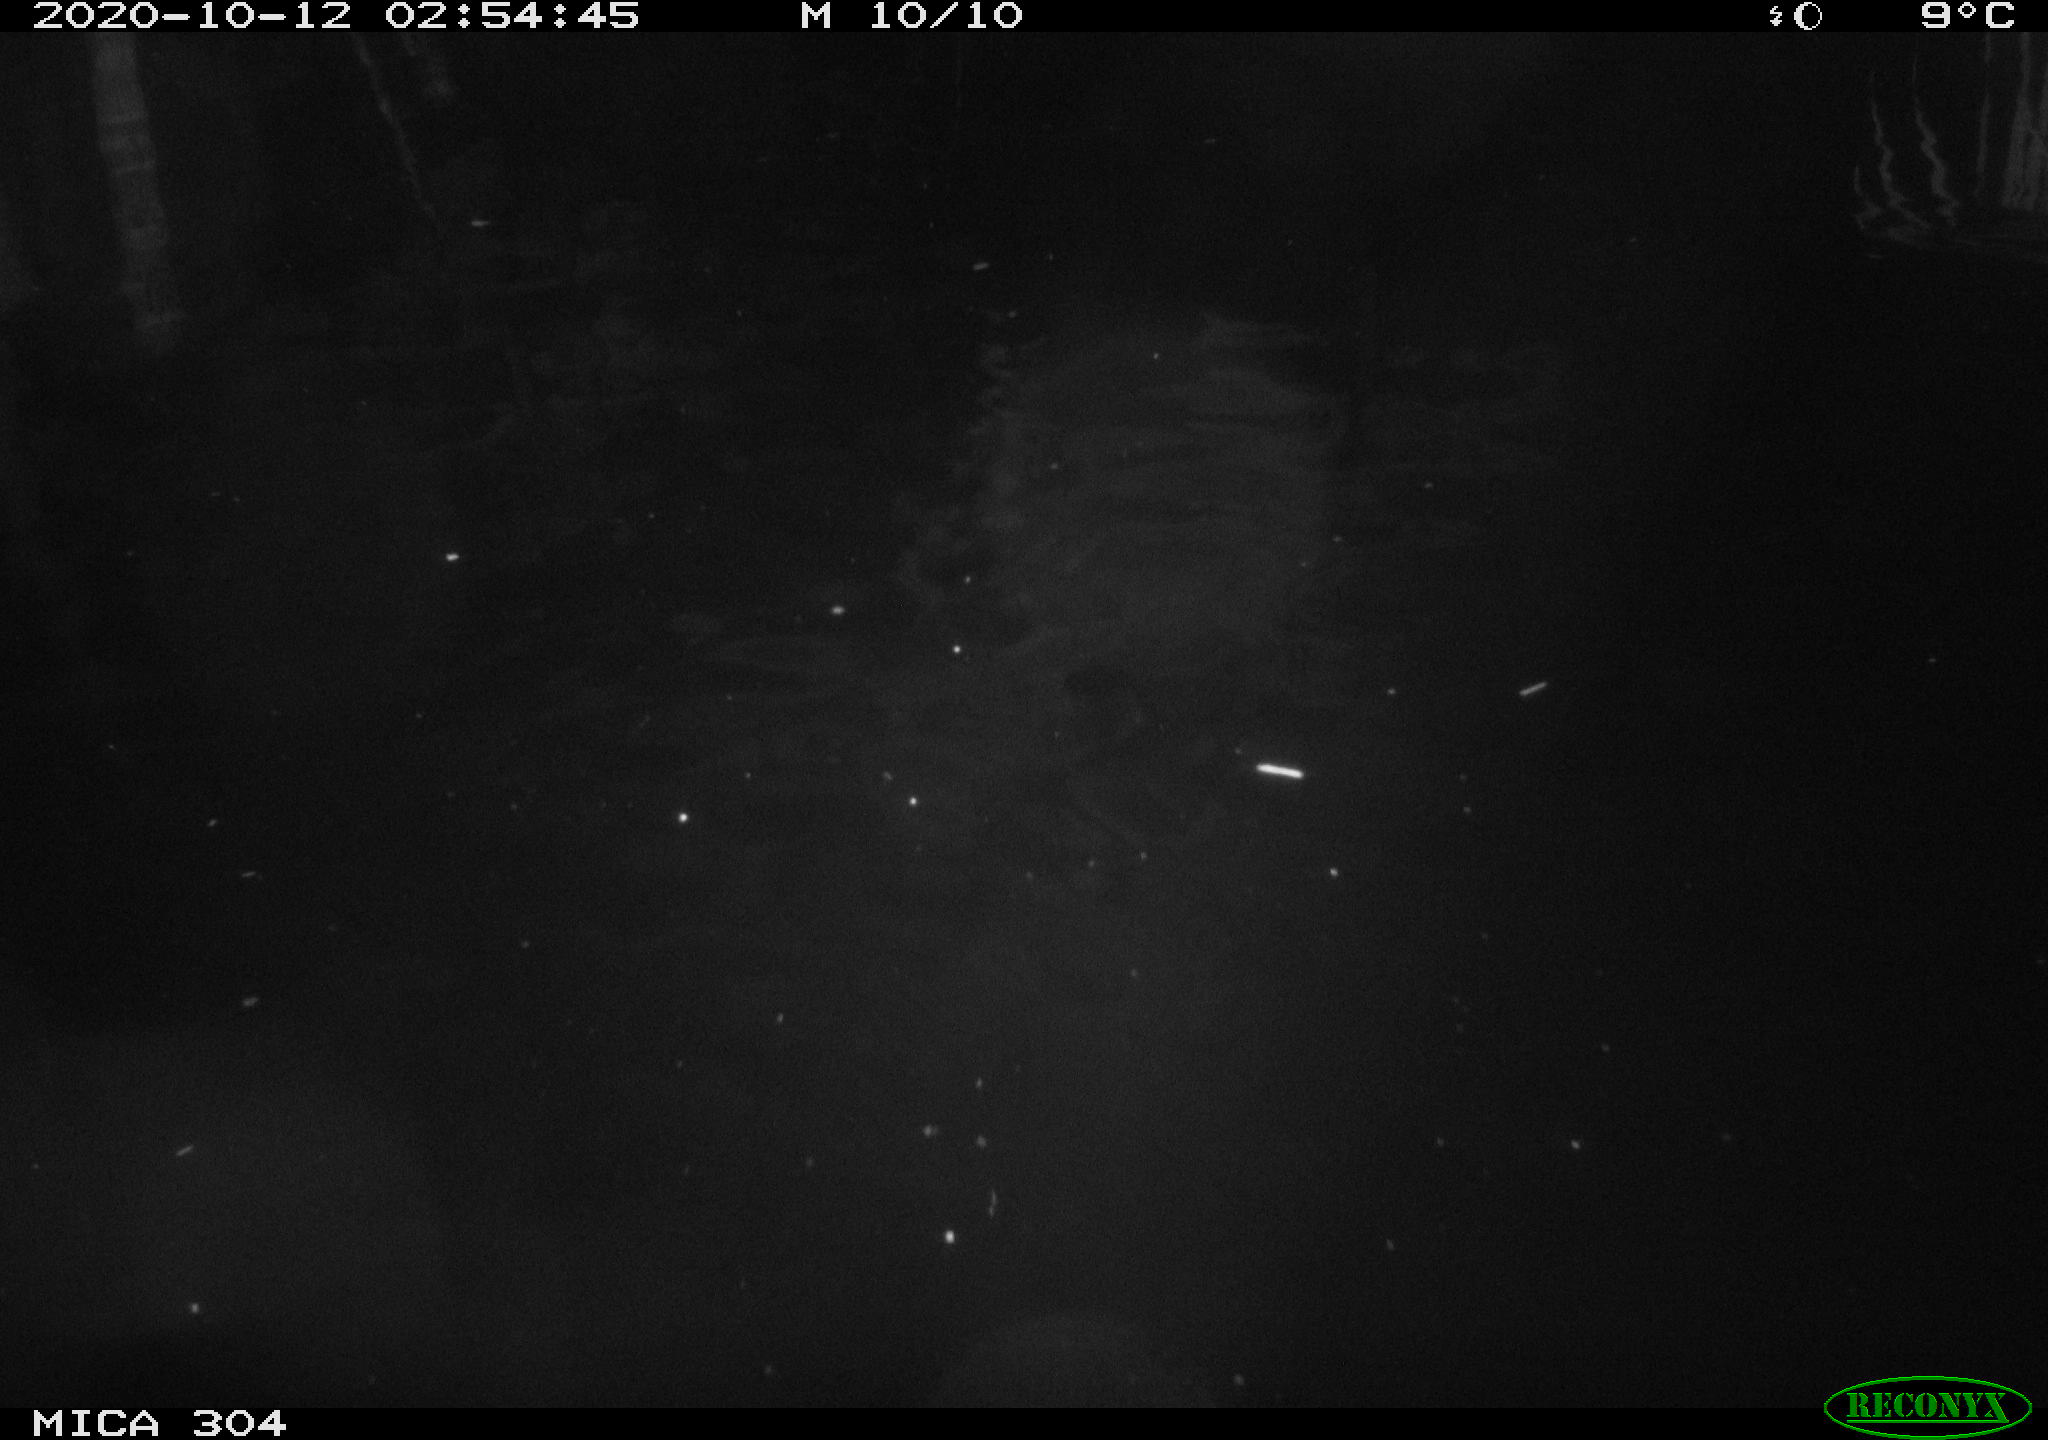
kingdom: Animalia
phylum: Chordata
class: Mammalia
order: Rodentia
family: Muridae
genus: Rattus
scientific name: Rattus norvegicus
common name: Brown rat
